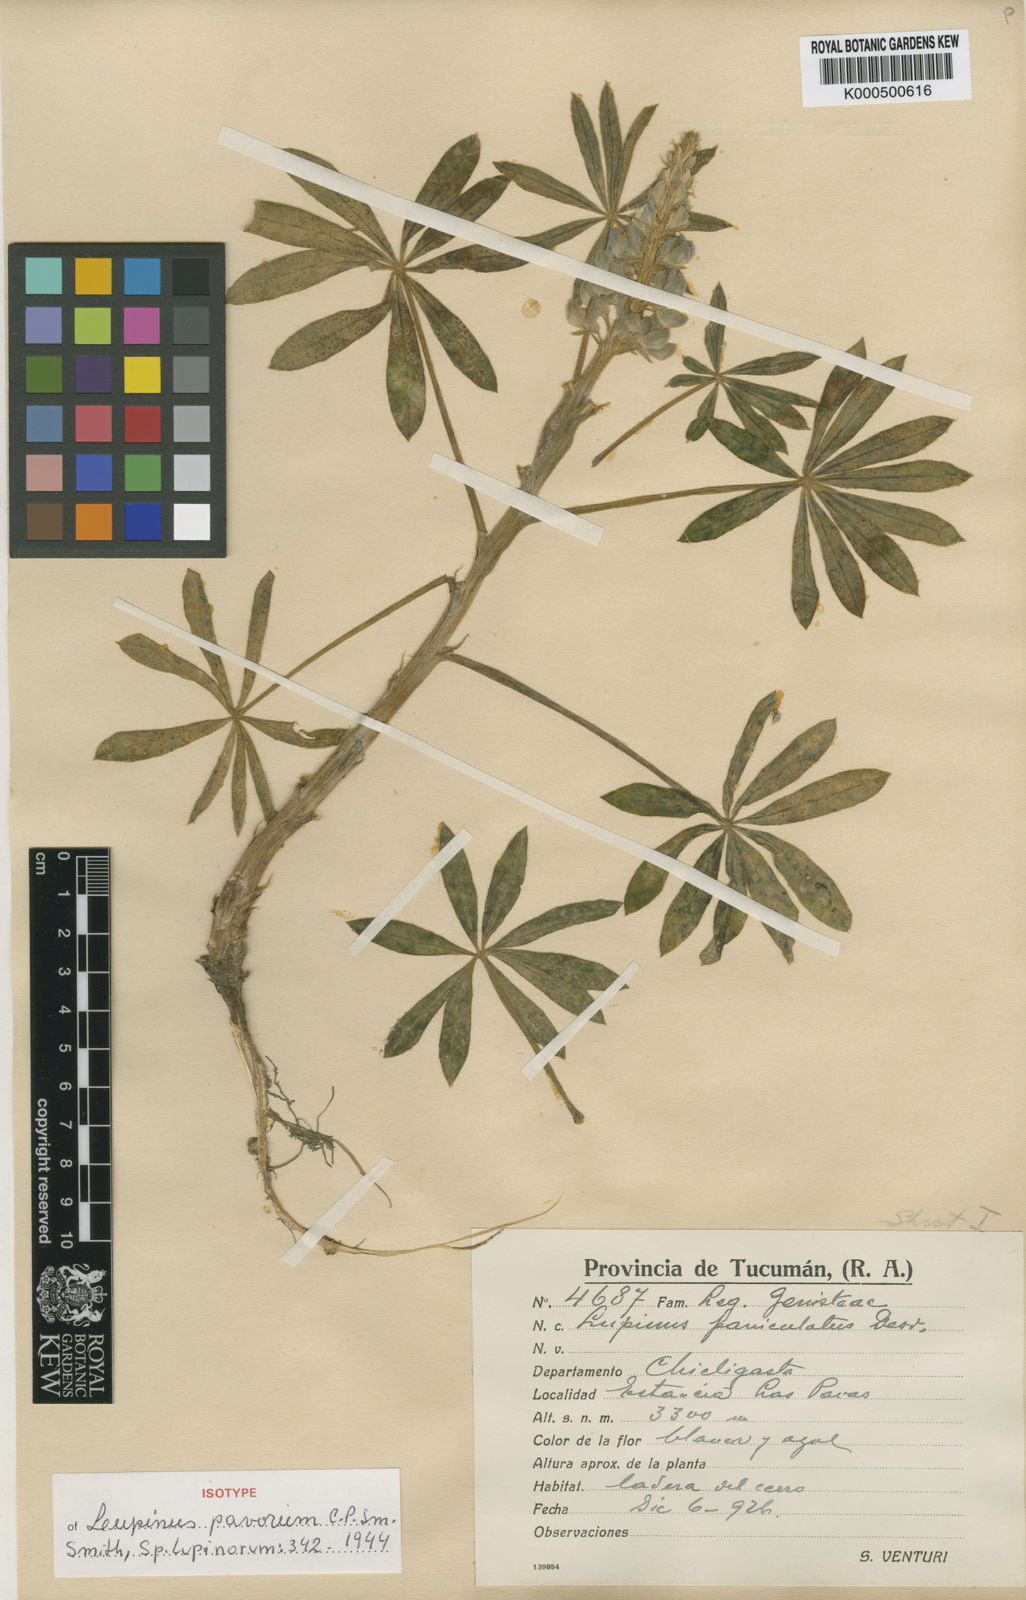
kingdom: Plantae
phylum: Tracheophyta
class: Magnoliopsida
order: Fabales
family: Fabaceae
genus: Lupinus
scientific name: Lupinus burkartianus
